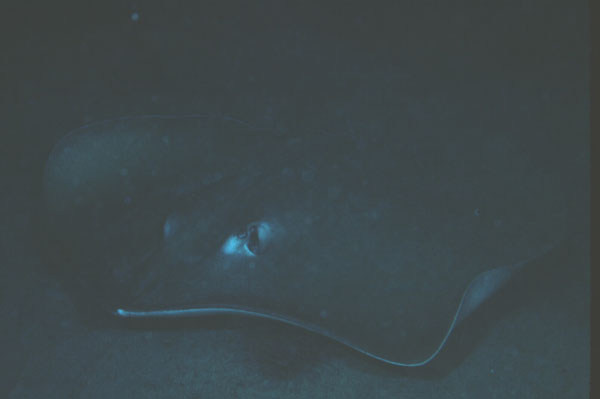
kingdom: Animalia
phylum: Chordata
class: Elasmobranchii
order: Myliobatiformes
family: Dasyatidae
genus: Hemitrygon
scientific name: Hemitrygon fluviorum
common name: Estuary stingray
